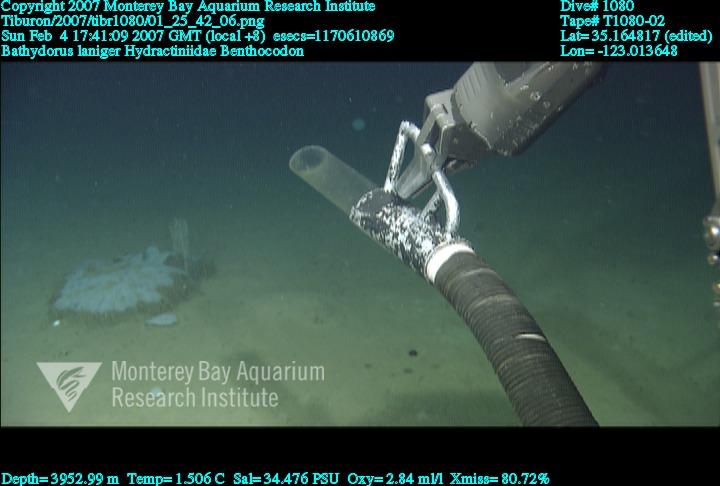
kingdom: Animalia
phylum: Porifera
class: Hexactinellida
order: Lyssacinosida
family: Rossellidae
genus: Bathydorus
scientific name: Bathydorus laniger
